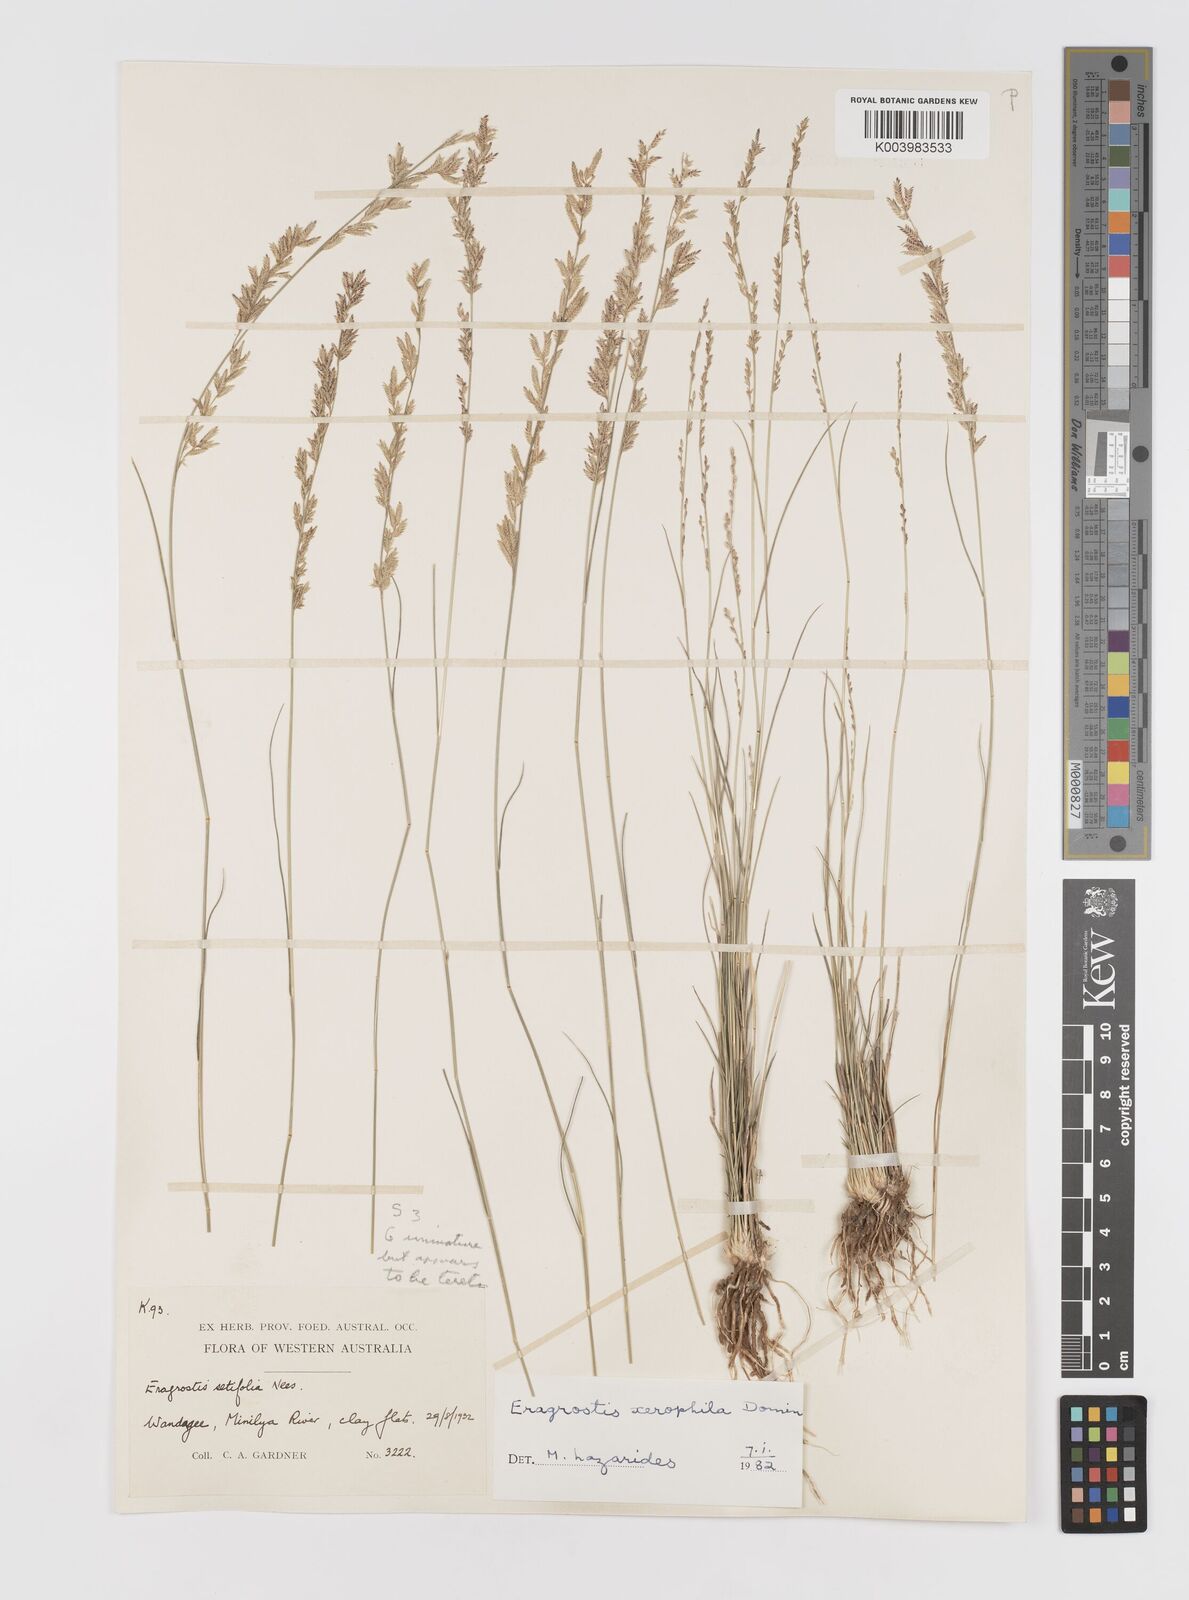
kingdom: Plantae
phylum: Tracheophyta
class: Liliopsida
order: Poales
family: Poaceae
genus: Eragrostis
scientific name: Eragrostis xerophila
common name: Wire wandarrie grass
